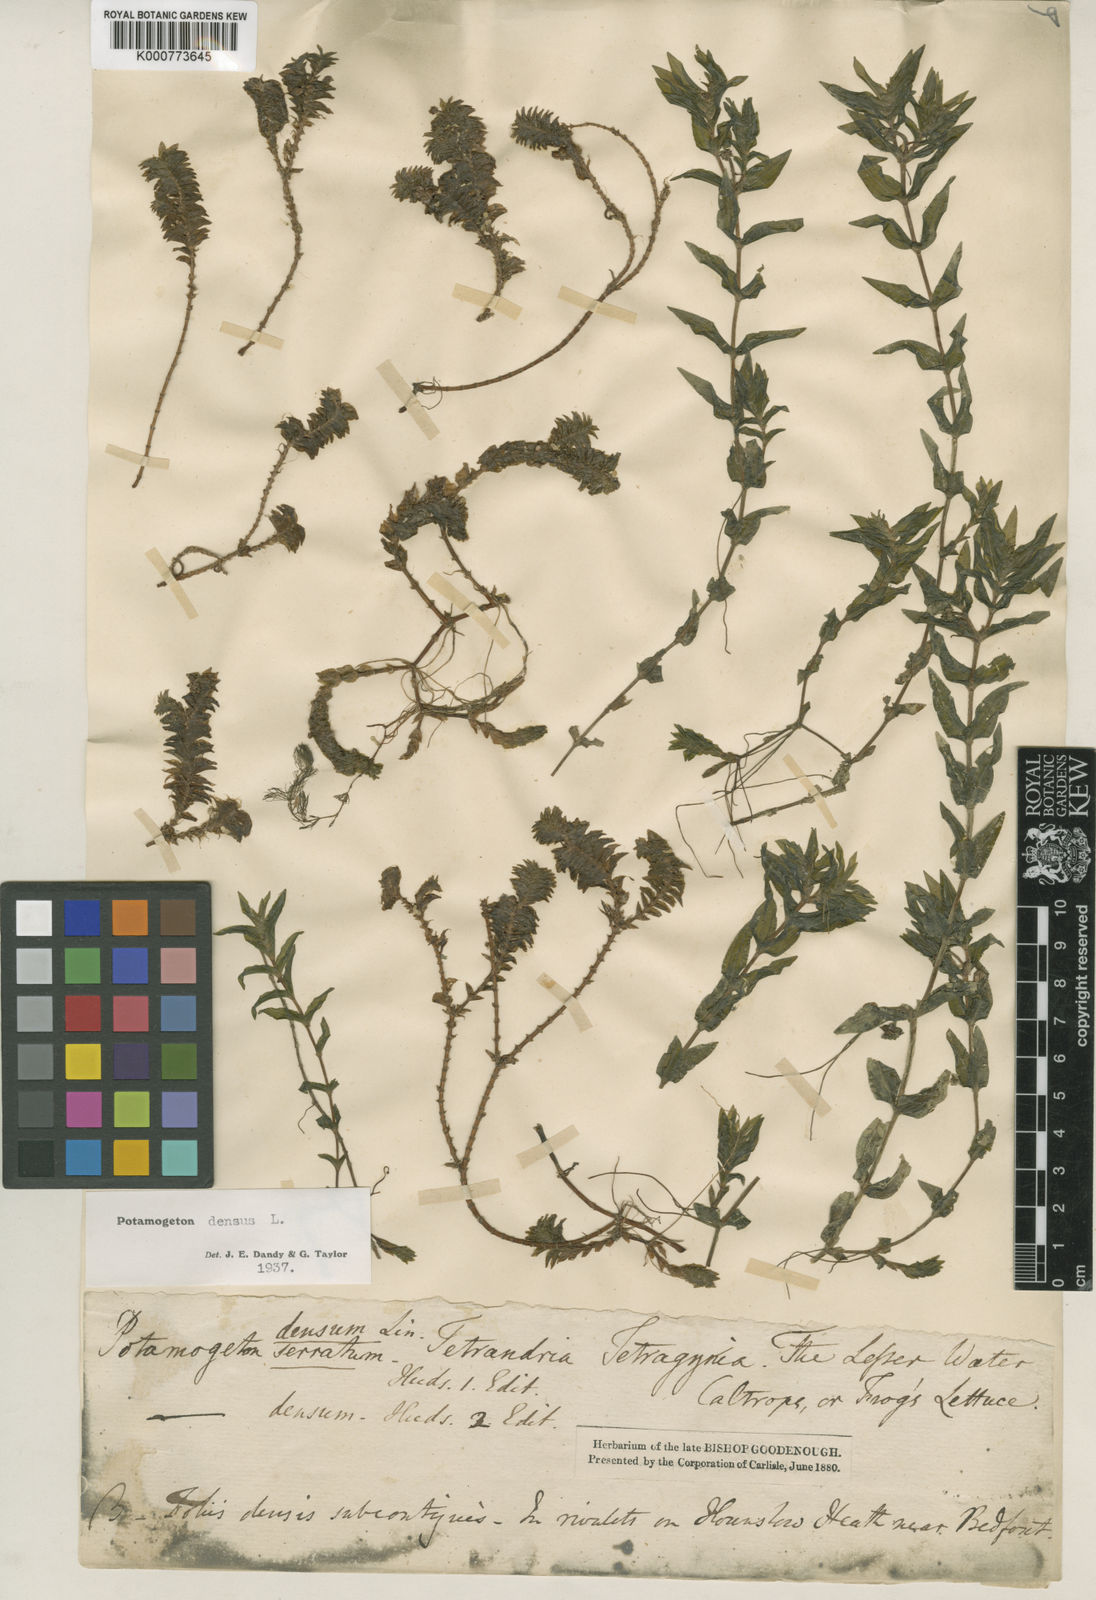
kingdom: Plantae
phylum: Tracheophyta
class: Liliopsida
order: Alismatales
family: Potamogetonaceae
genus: Groenlandia
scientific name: Groenlandia densa
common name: Opposite-leaved pondweed
